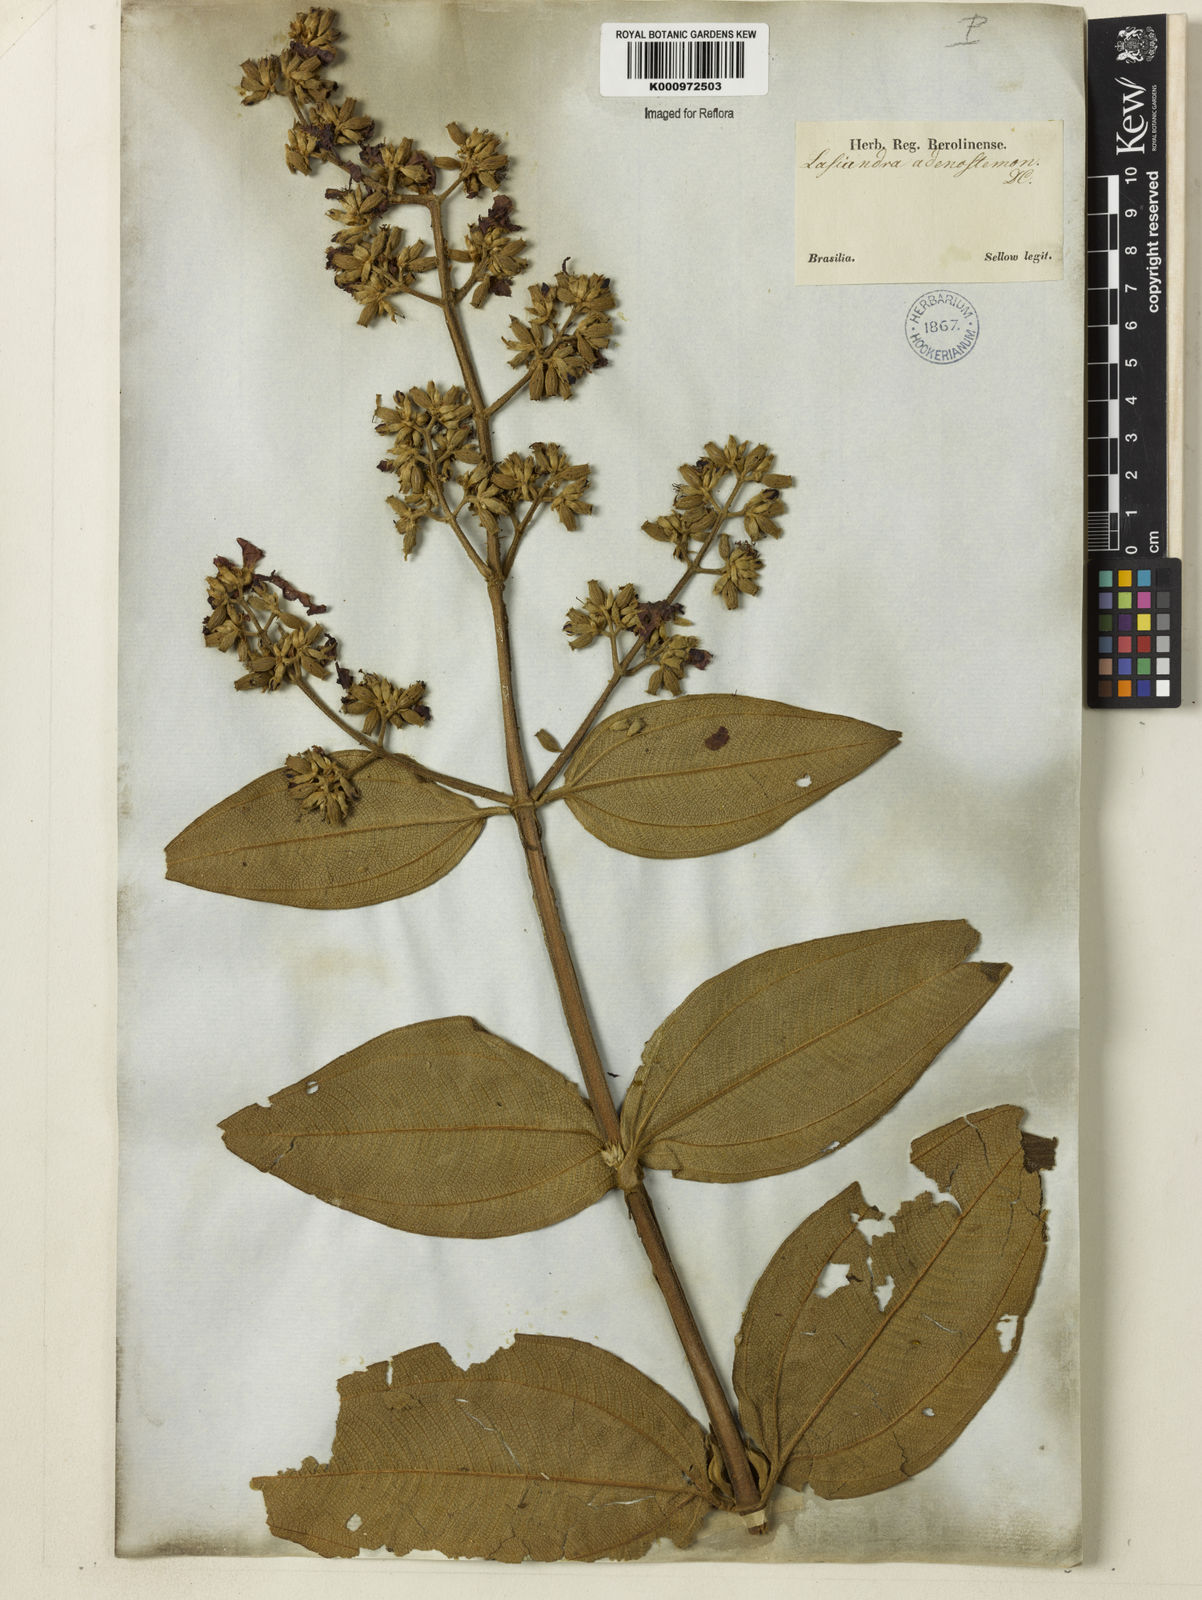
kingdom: Plantae
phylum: Tracheophyta
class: Magnoliopsida
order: Myrtales
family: Melastomataceae
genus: Pleroma
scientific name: Pleroma heteromallum
